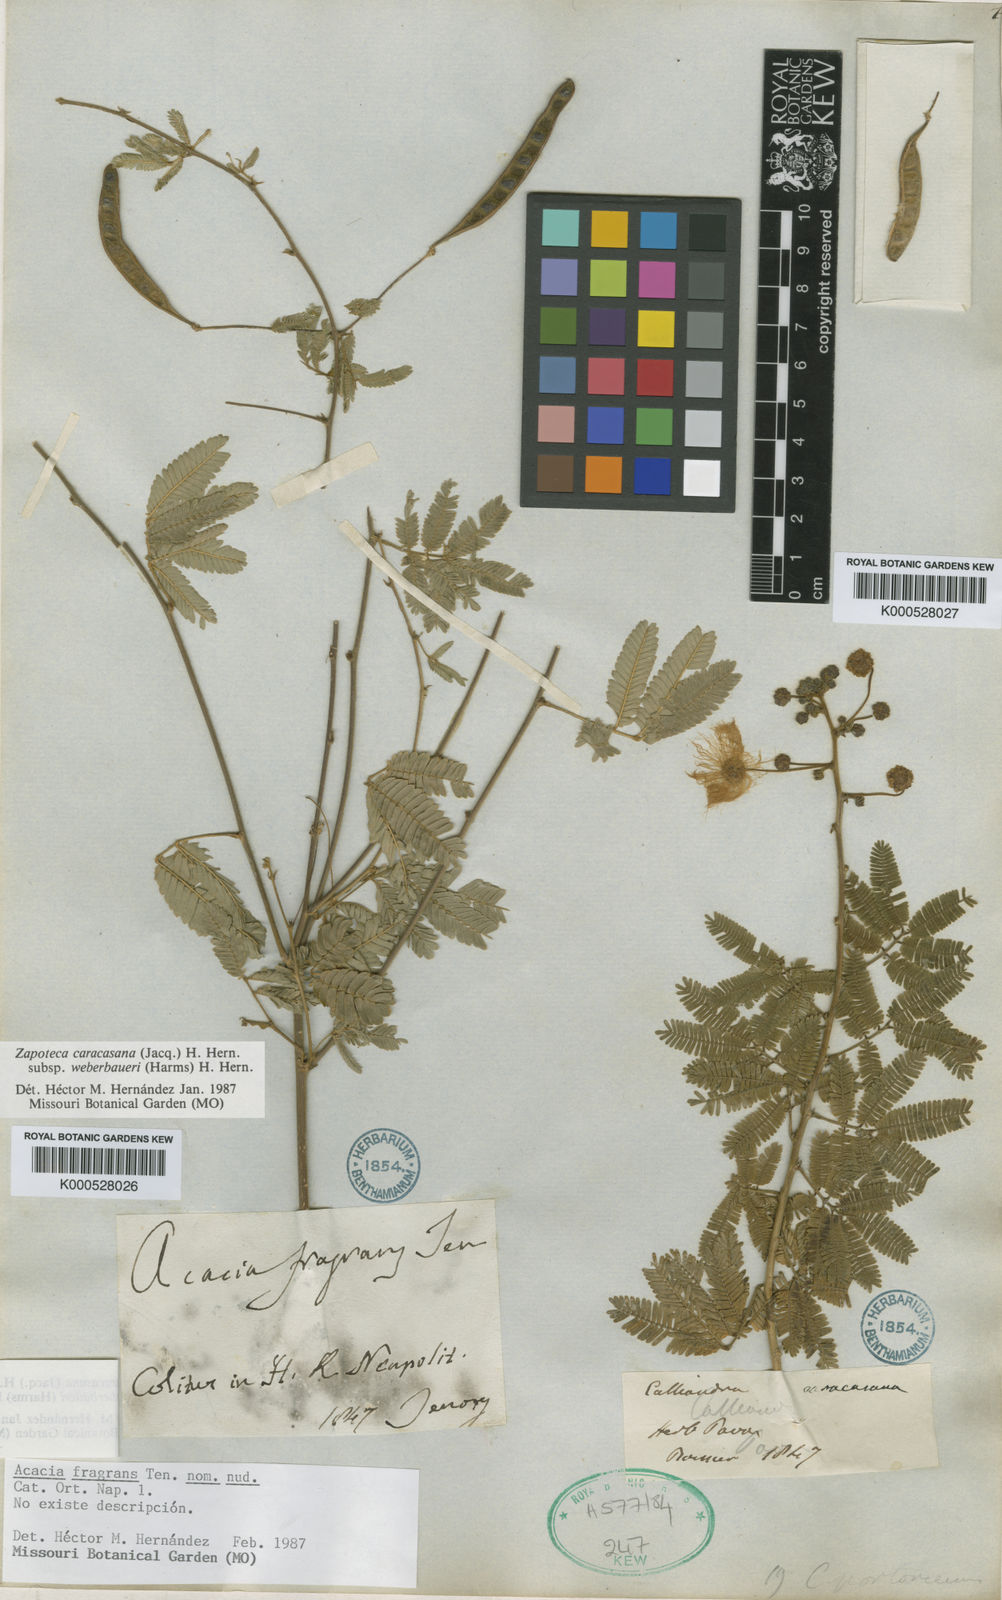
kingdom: Plantae
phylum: Tracheophyta
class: Magnoliopsida
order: Fabales
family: Fabaceae
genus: Zapoteca
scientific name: Zapoteca caracasana
